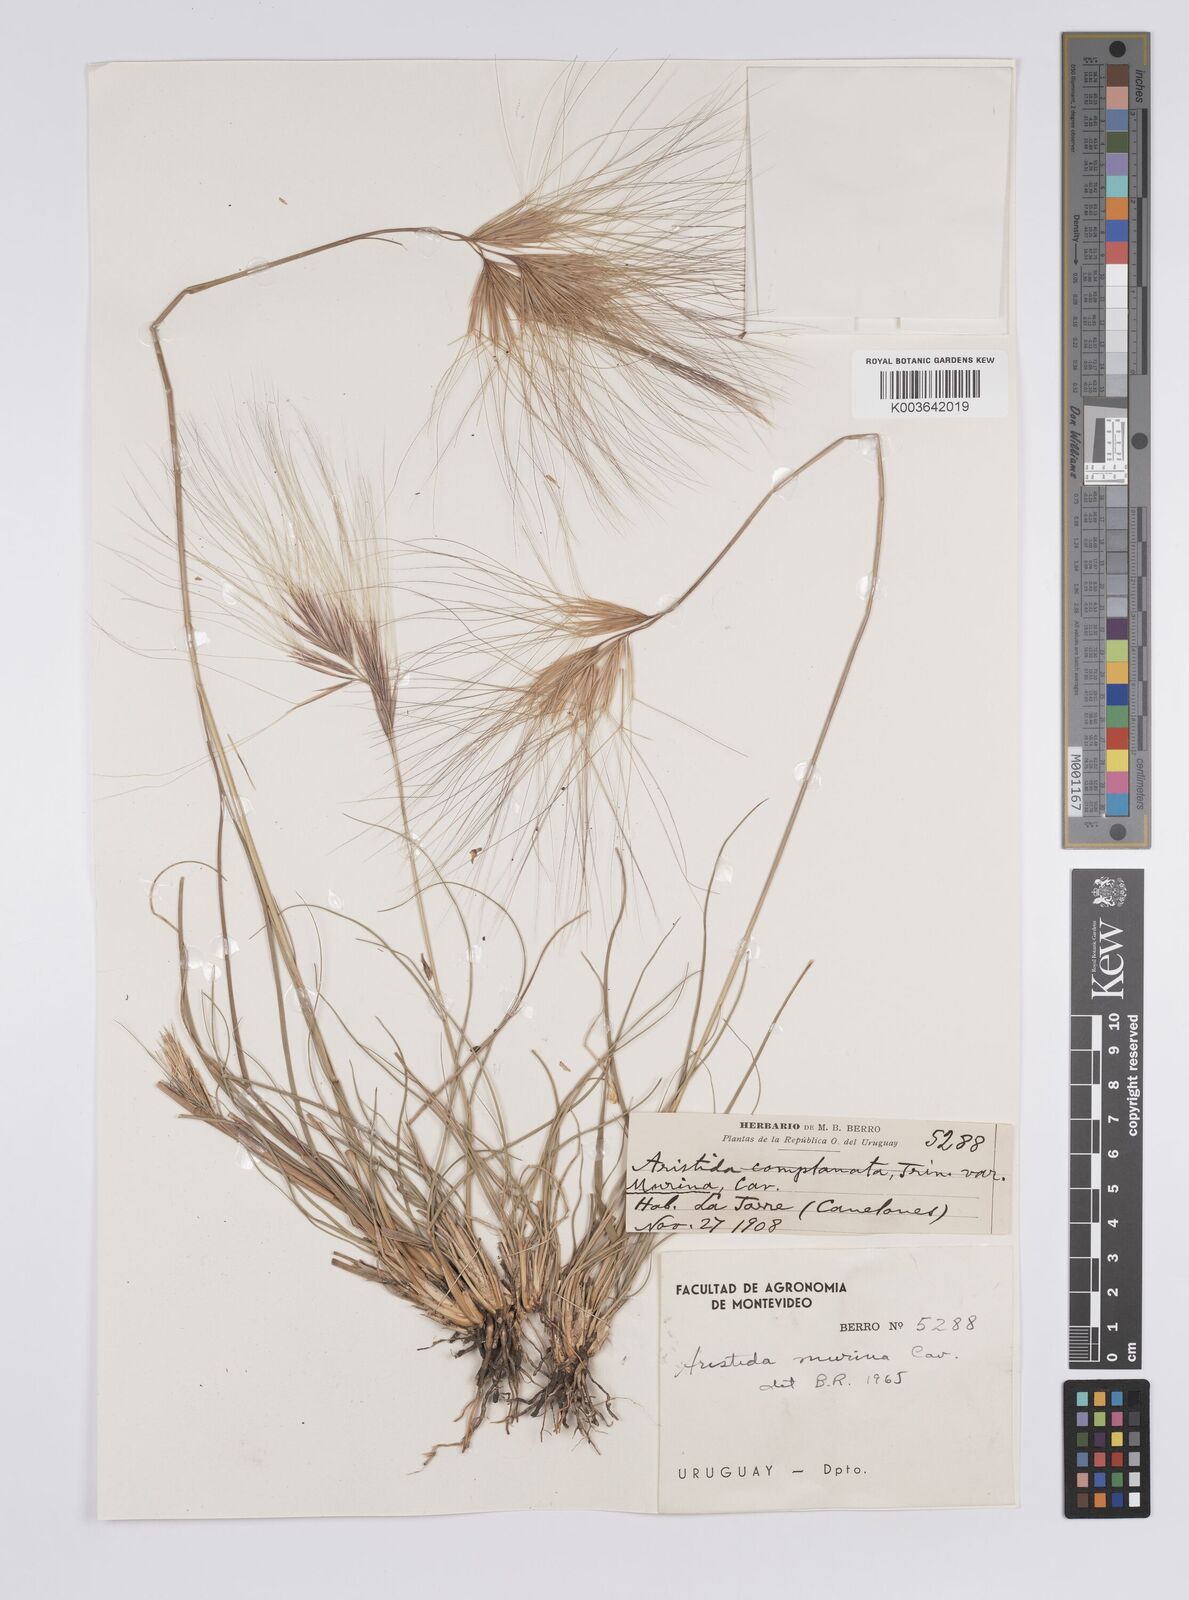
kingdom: Plantae
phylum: Tracheophyta
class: Liliopsida
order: Poales
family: Poaceae
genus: Aristida
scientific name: Aristida murina
